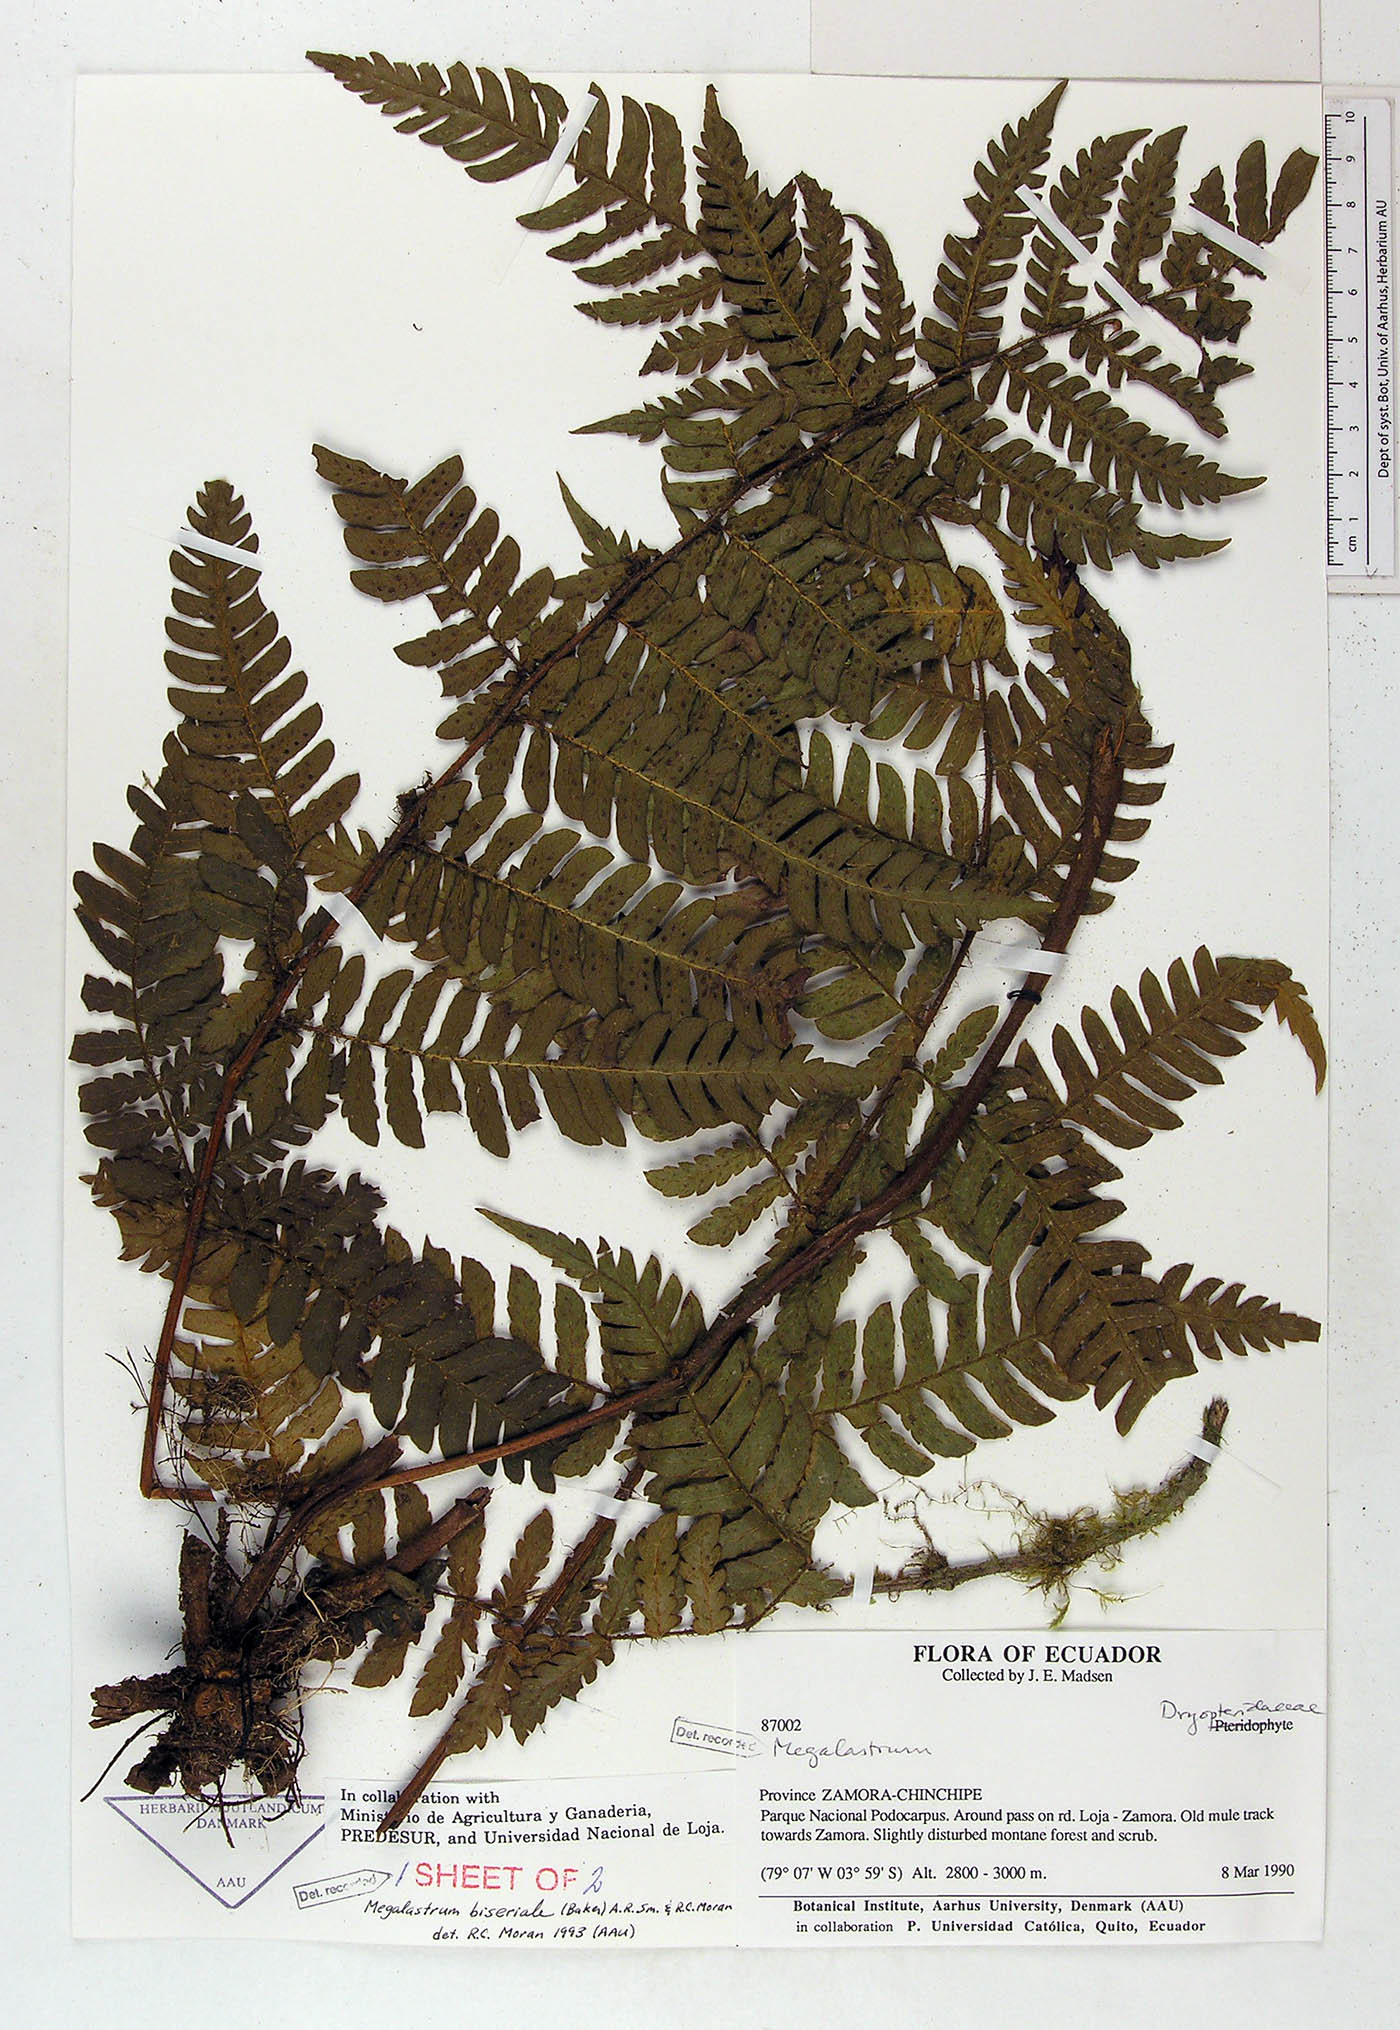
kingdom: Plantae
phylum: Tracheophyta
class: Polypodiopsida
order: Polypodiales
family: Dryopteridaceae
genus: Megalastrum
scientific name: Megalastrum biseriale
